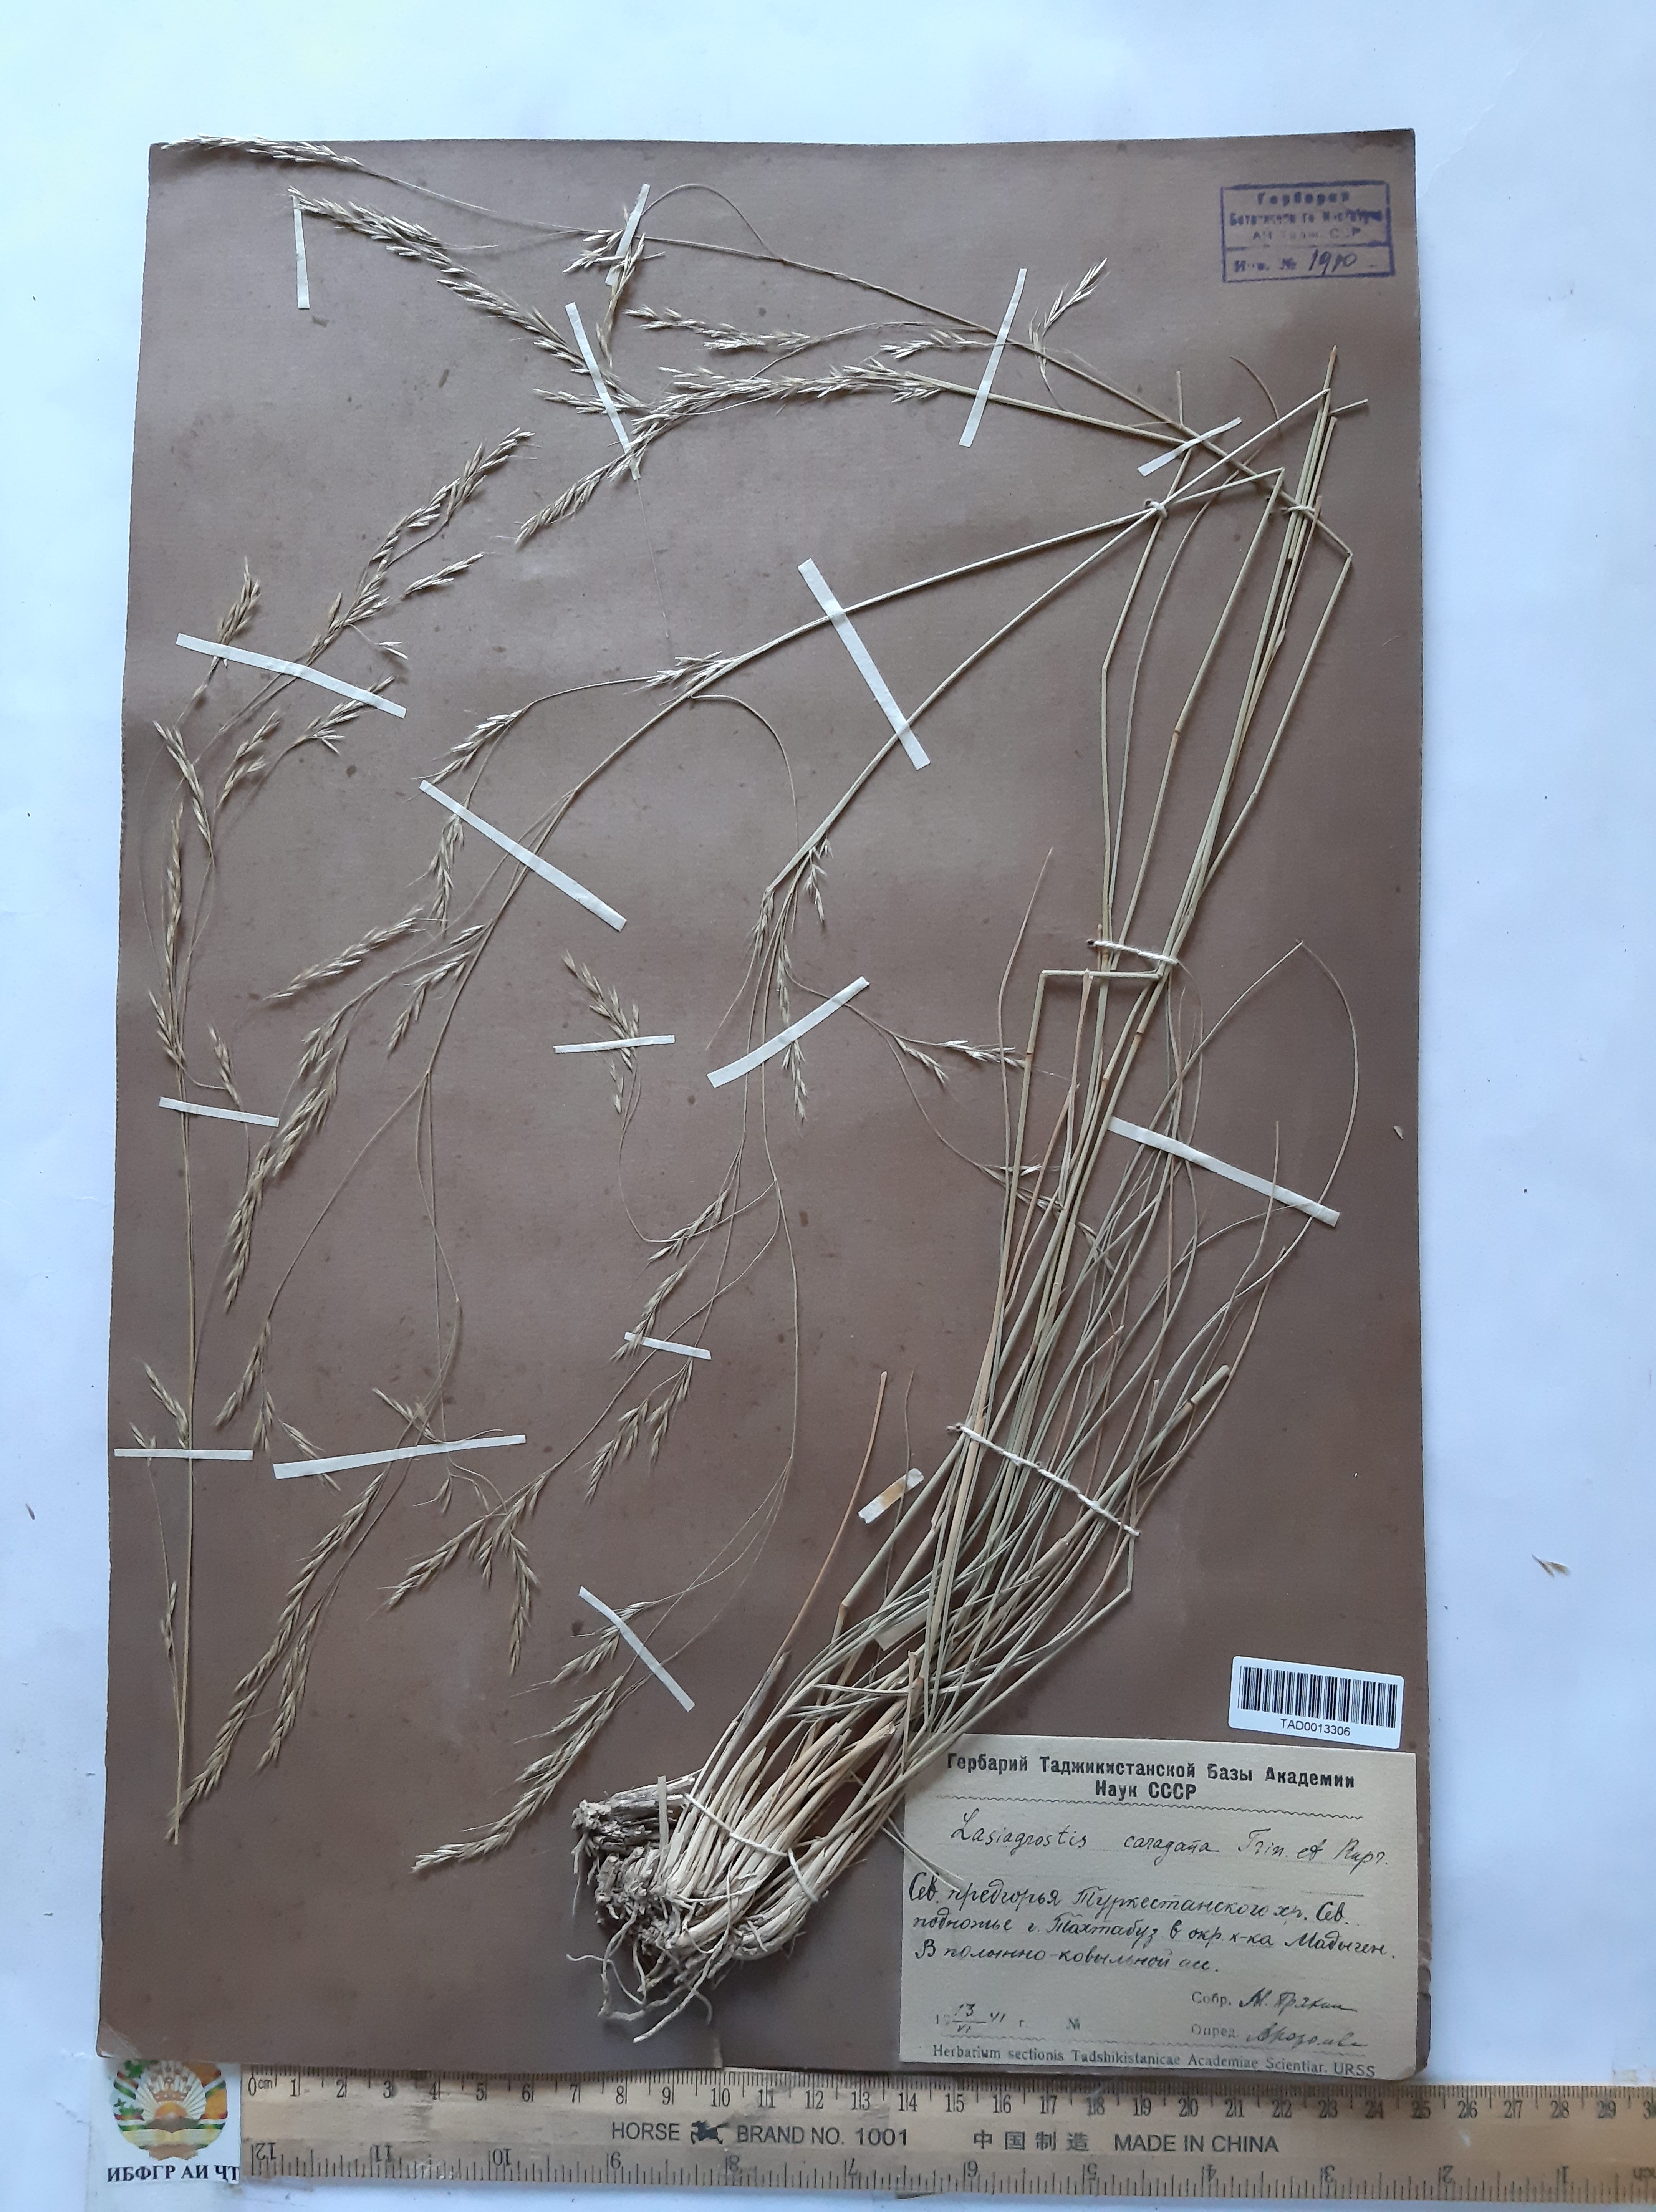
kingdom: Plantae
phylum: Tracheophyta
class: Liliopsida
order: Poales
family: Poaceae
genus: Stipa
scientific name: Stipa conferta
